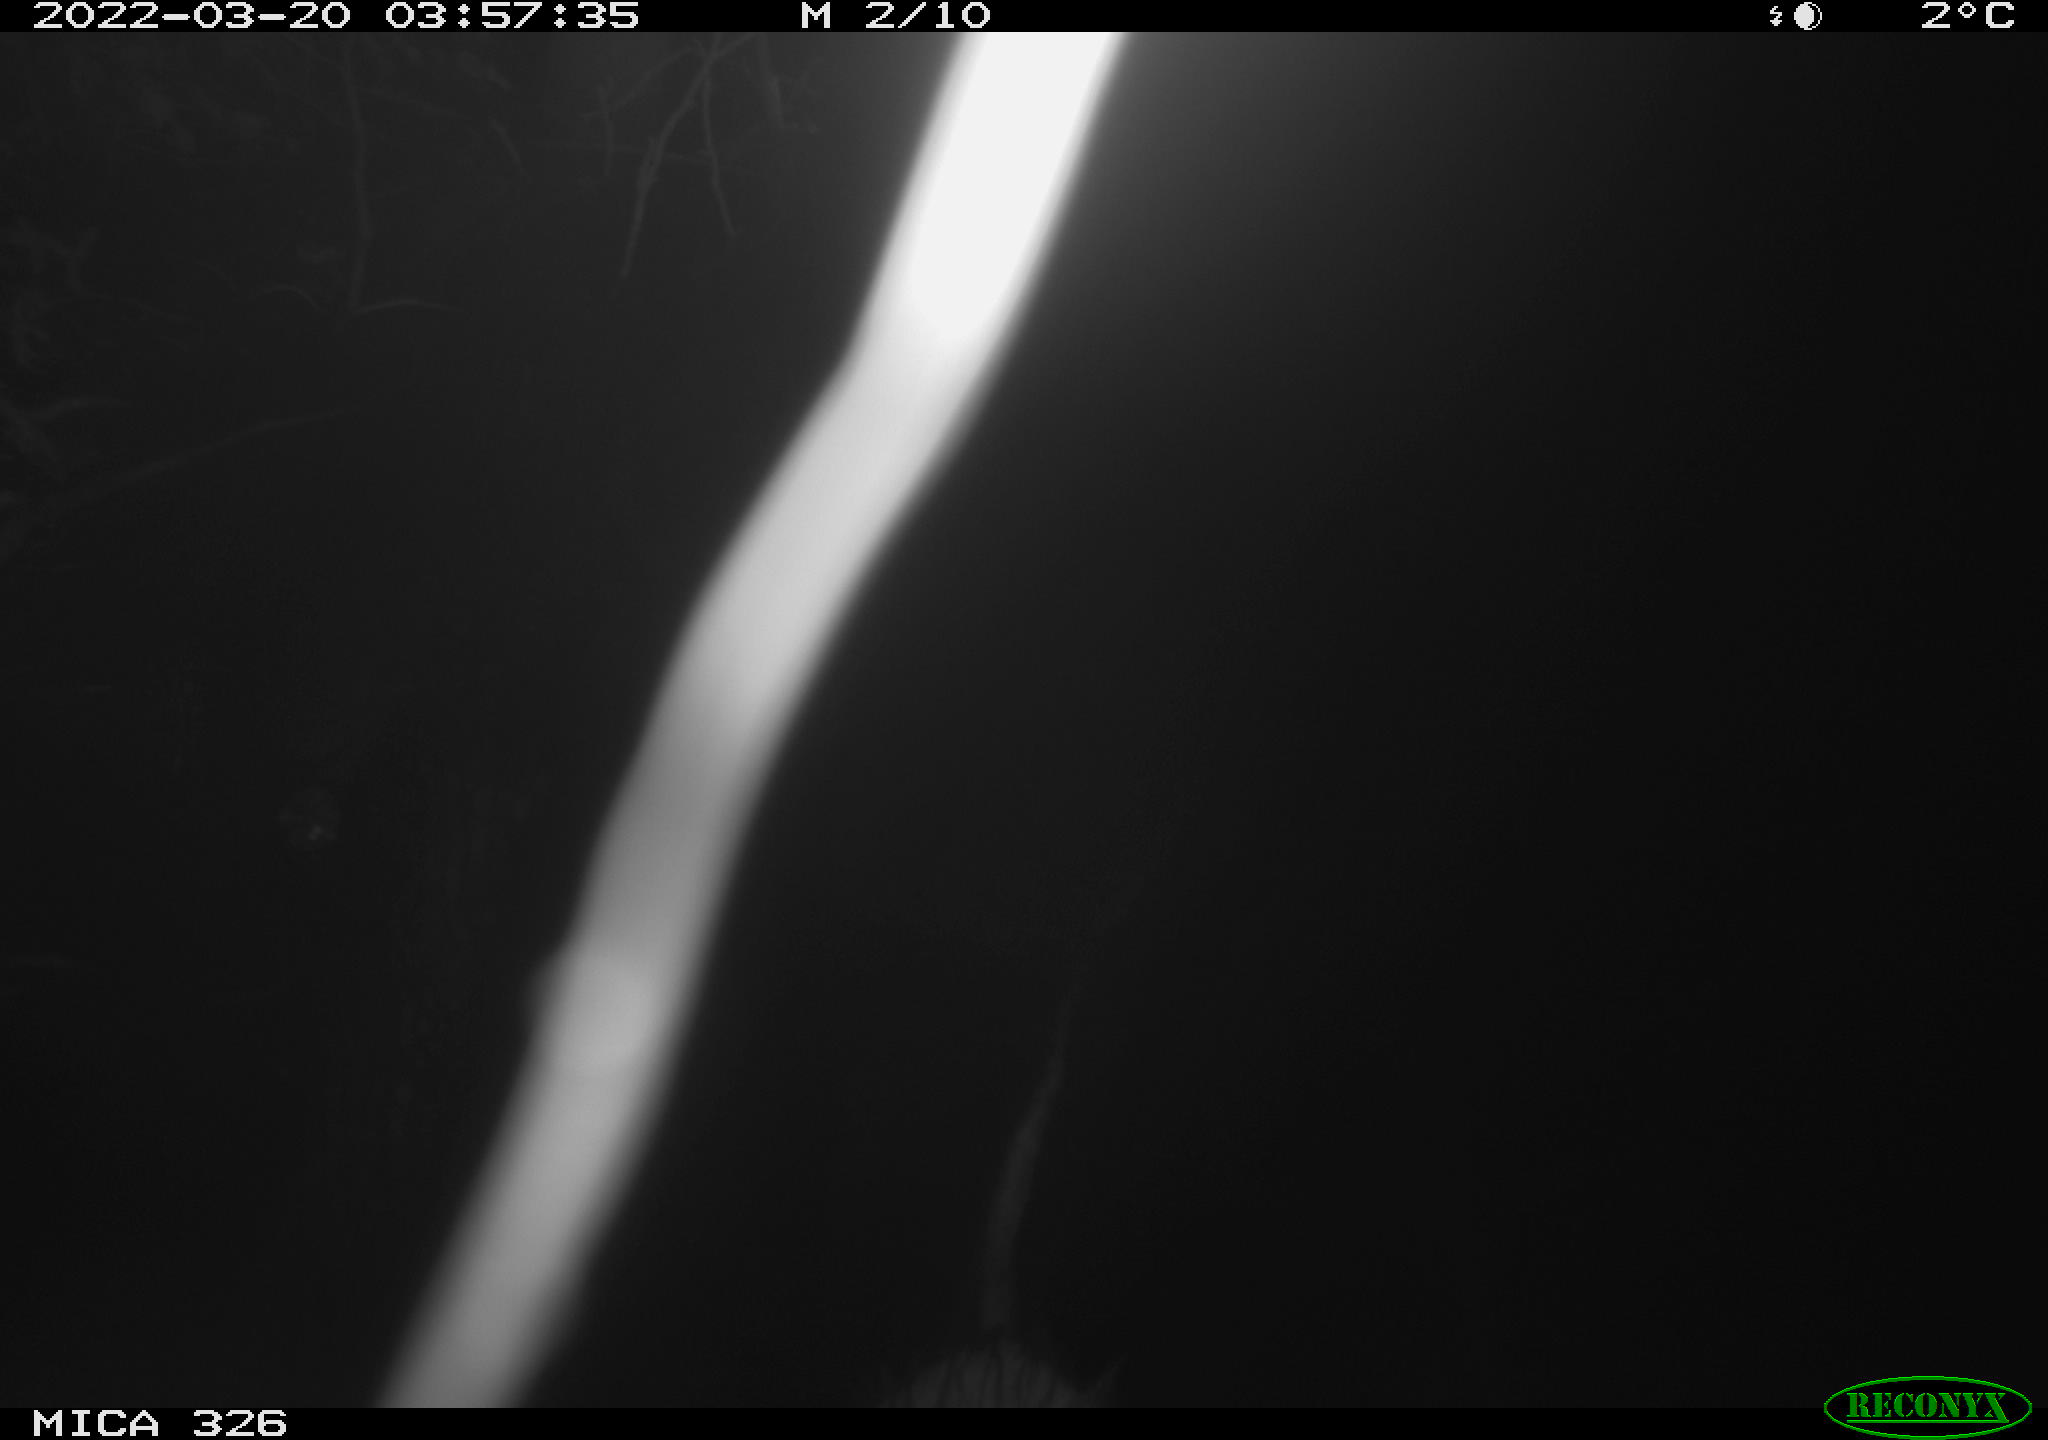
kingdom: Animalia
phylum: Chordata
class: Mammalia
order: Rodentia
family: Cricetidae
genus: Ondatra
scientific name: Ondatra zibethicus
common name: Muskrat
